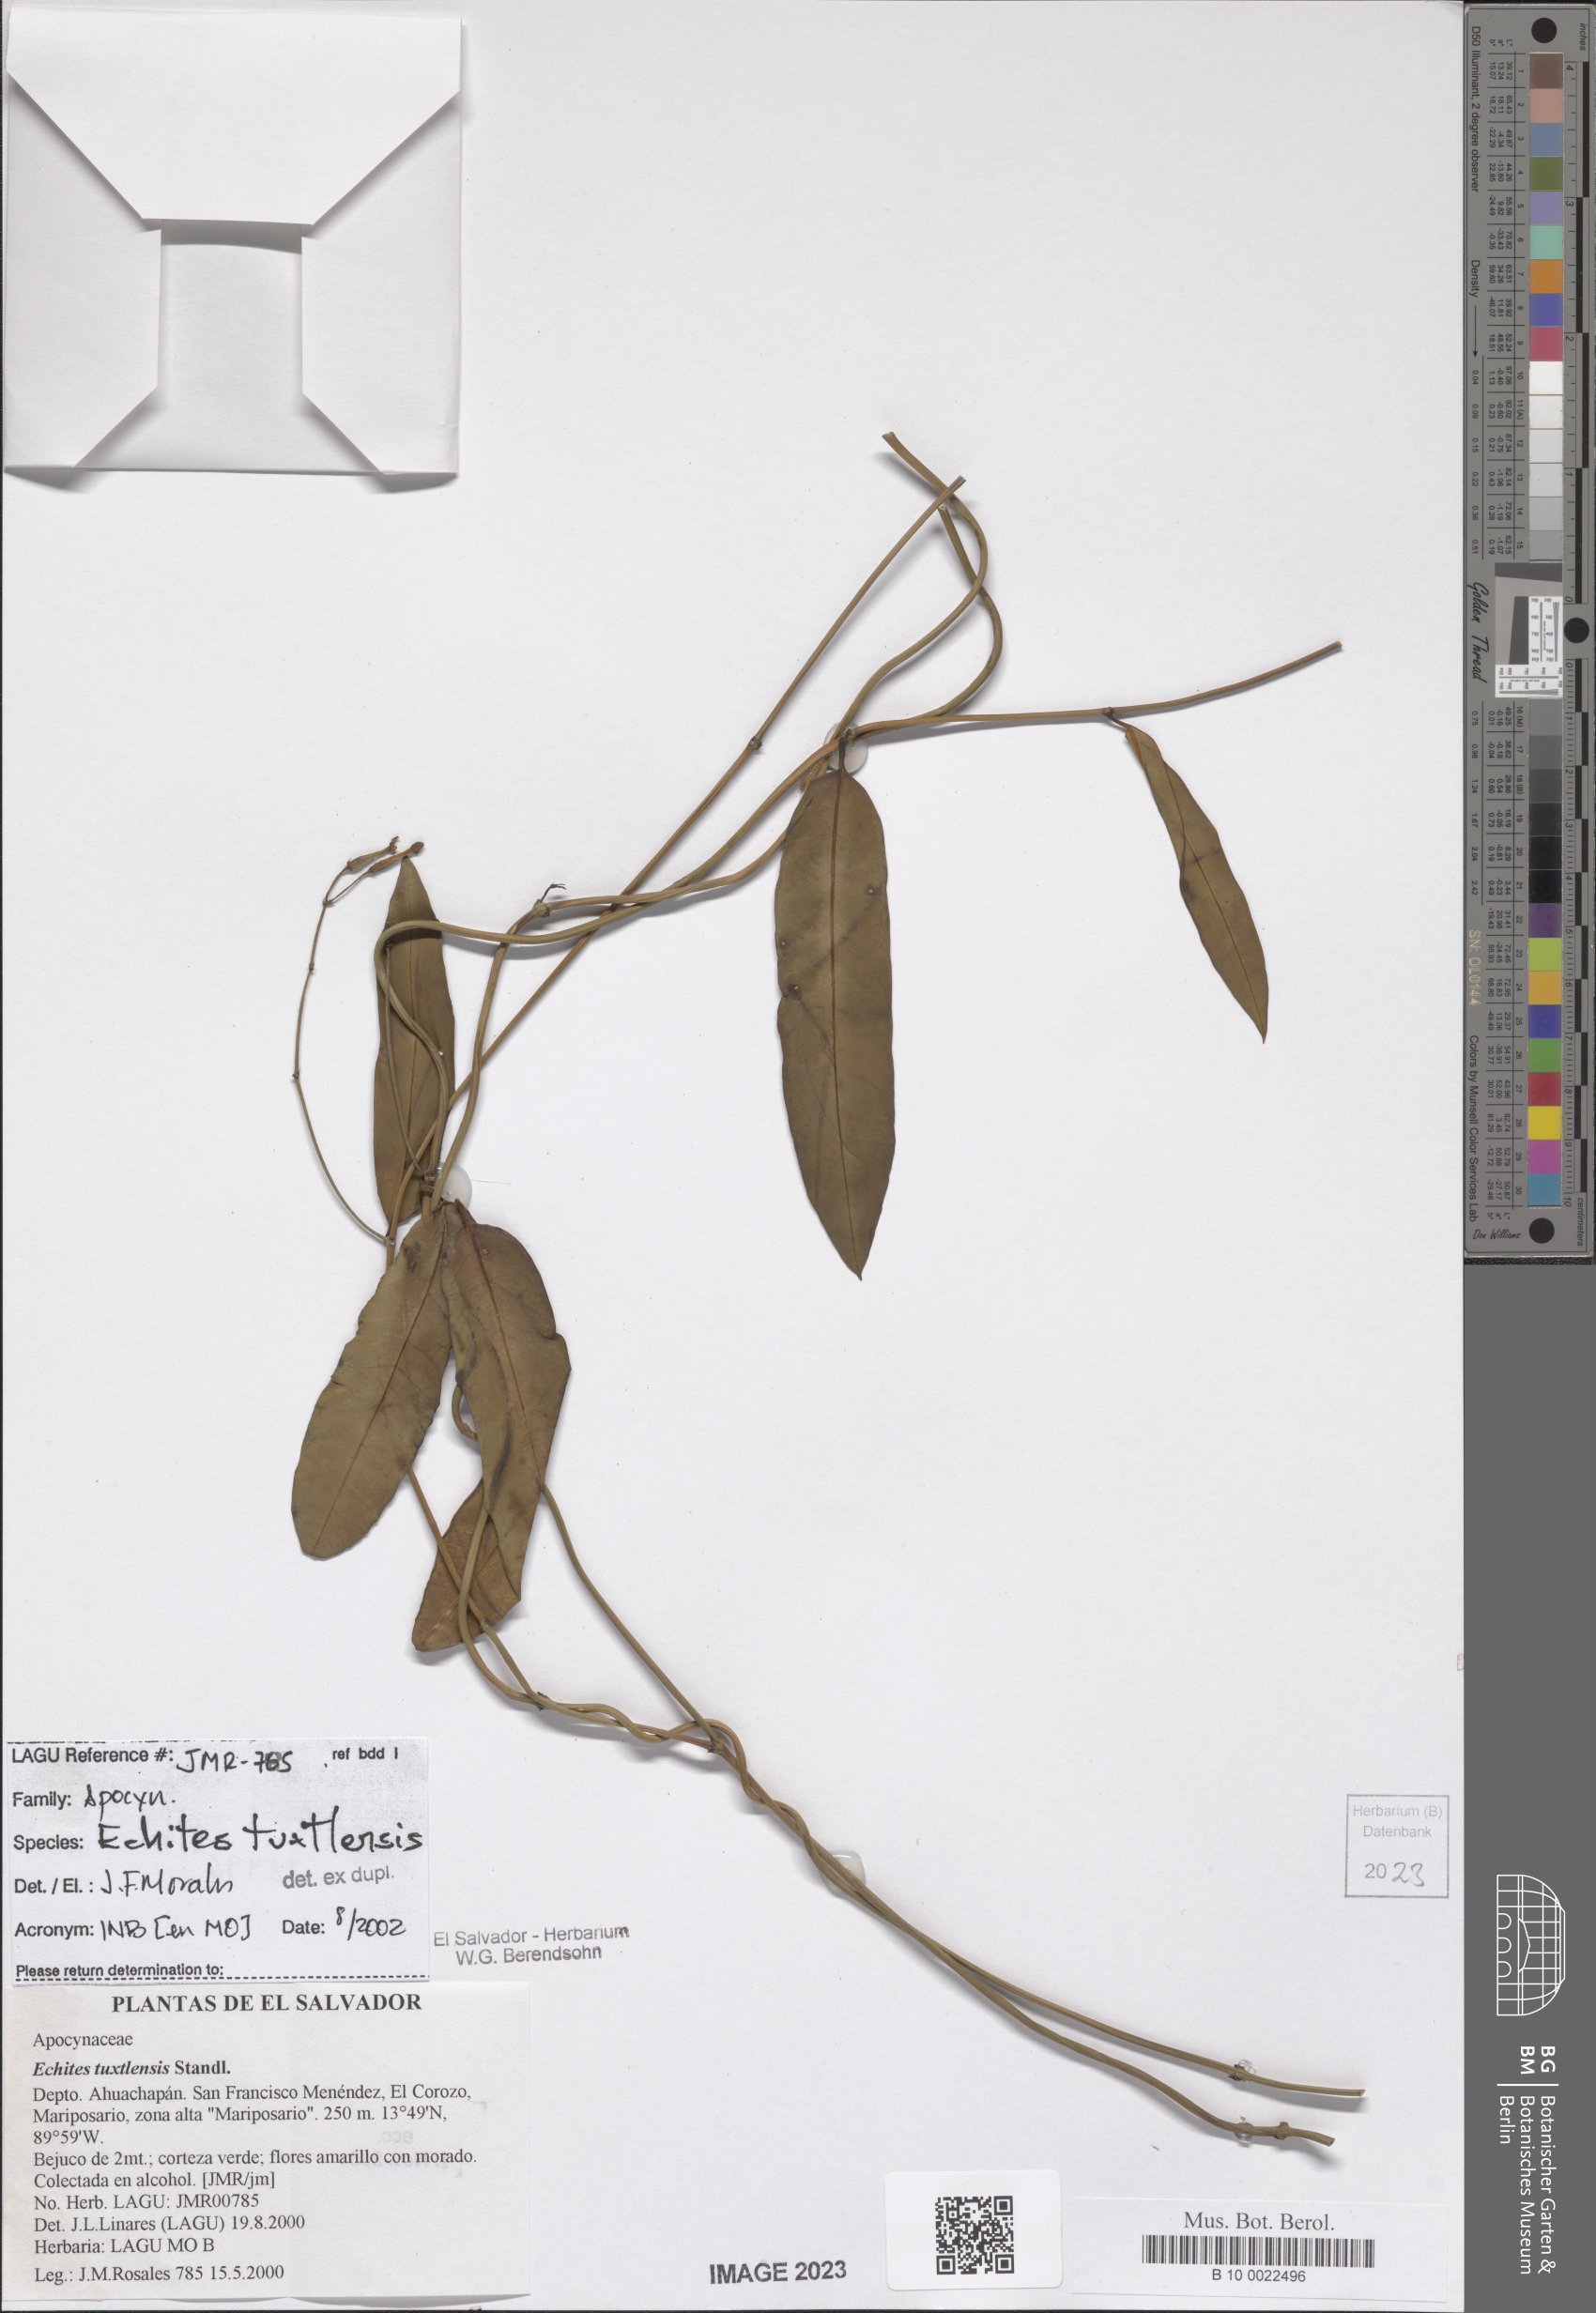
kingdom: Plantae
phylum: Tracheophyta
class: Magnoliopsida
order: Gentianales
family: Apocynaceae
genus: Echites
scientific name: Echites tuxtlensis
